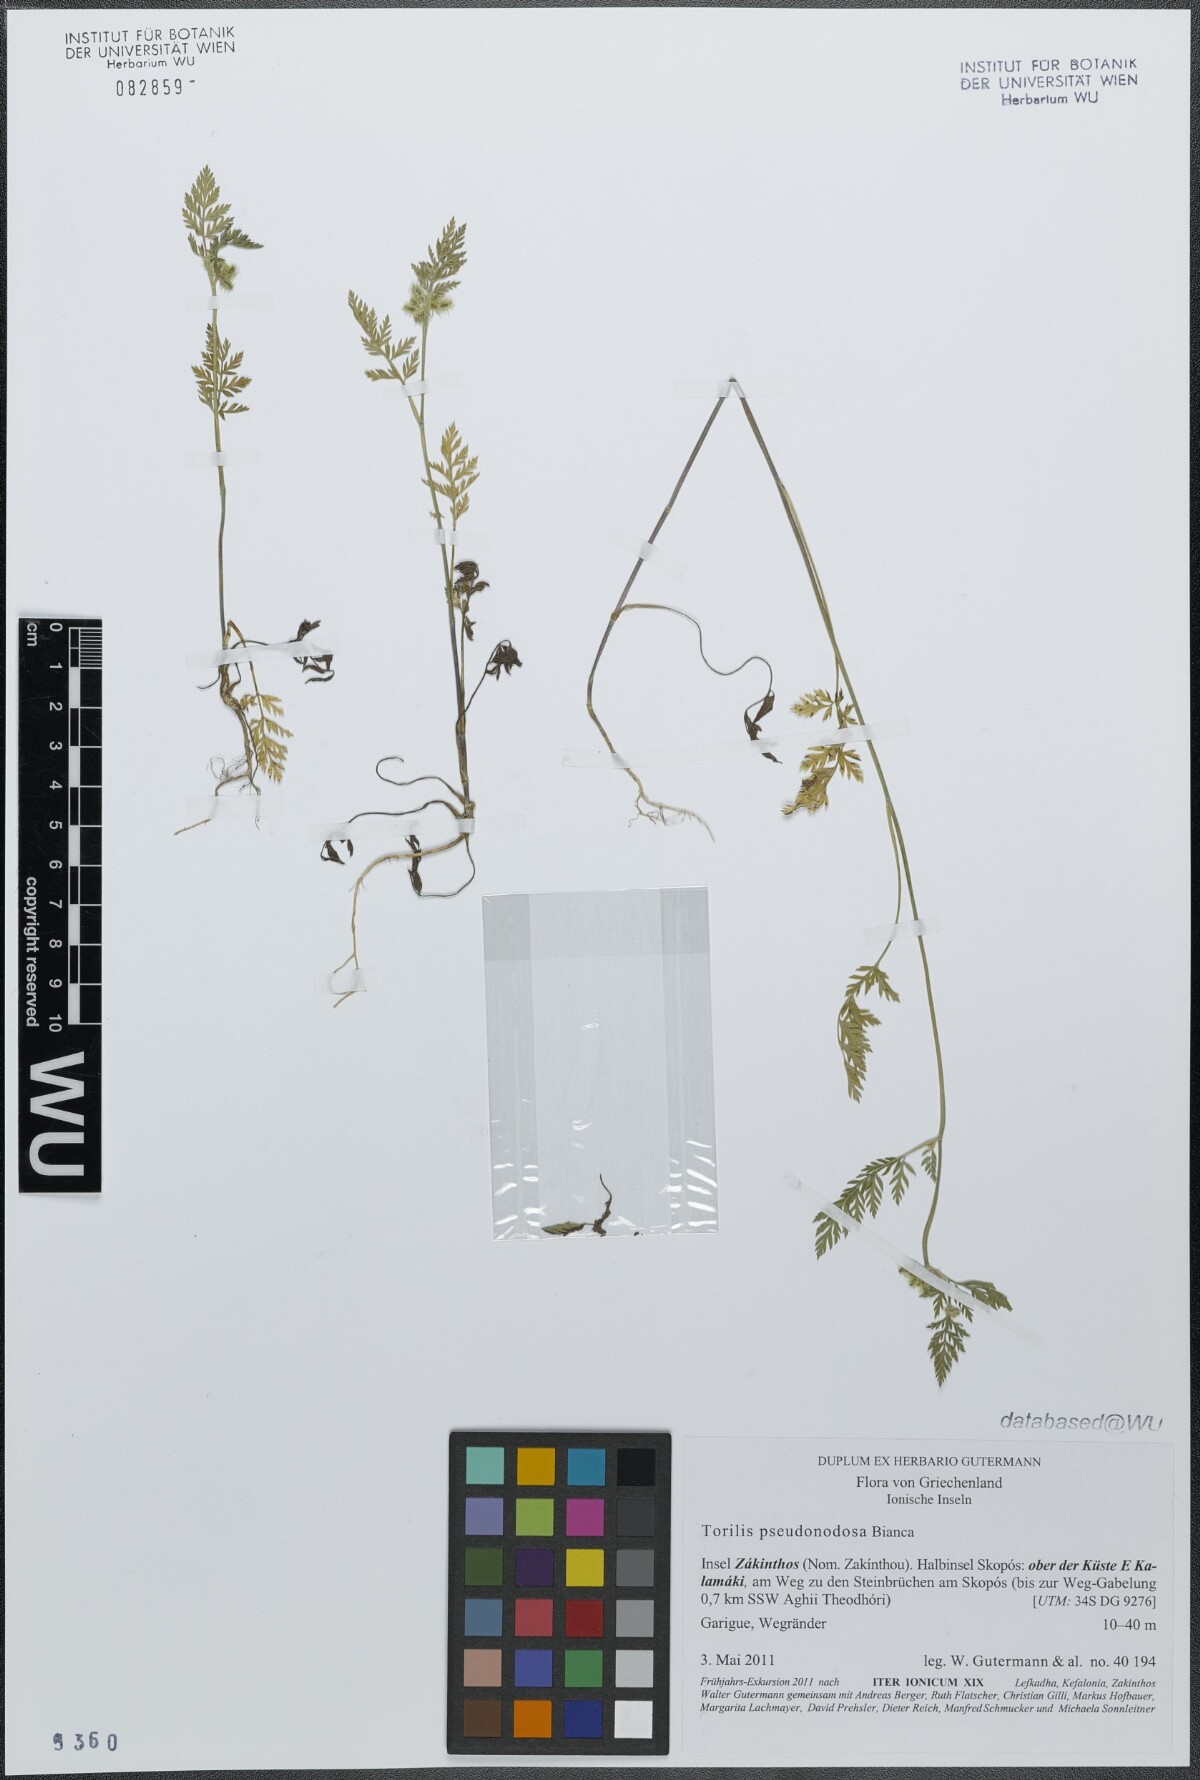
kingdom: Plantae
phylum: Tracheophyta
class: Magnoliopsida
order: Apiales
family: Apiaceae
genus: Torilis
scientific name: Torilis pseudonodosa
